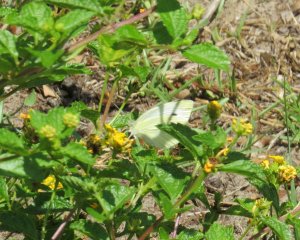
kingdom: Animalia
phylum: Arthropoda
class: Insecta
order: Lepidoptera
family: Pieridae
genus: Pieris
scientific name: Pieris rapae
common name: Cabbage White
